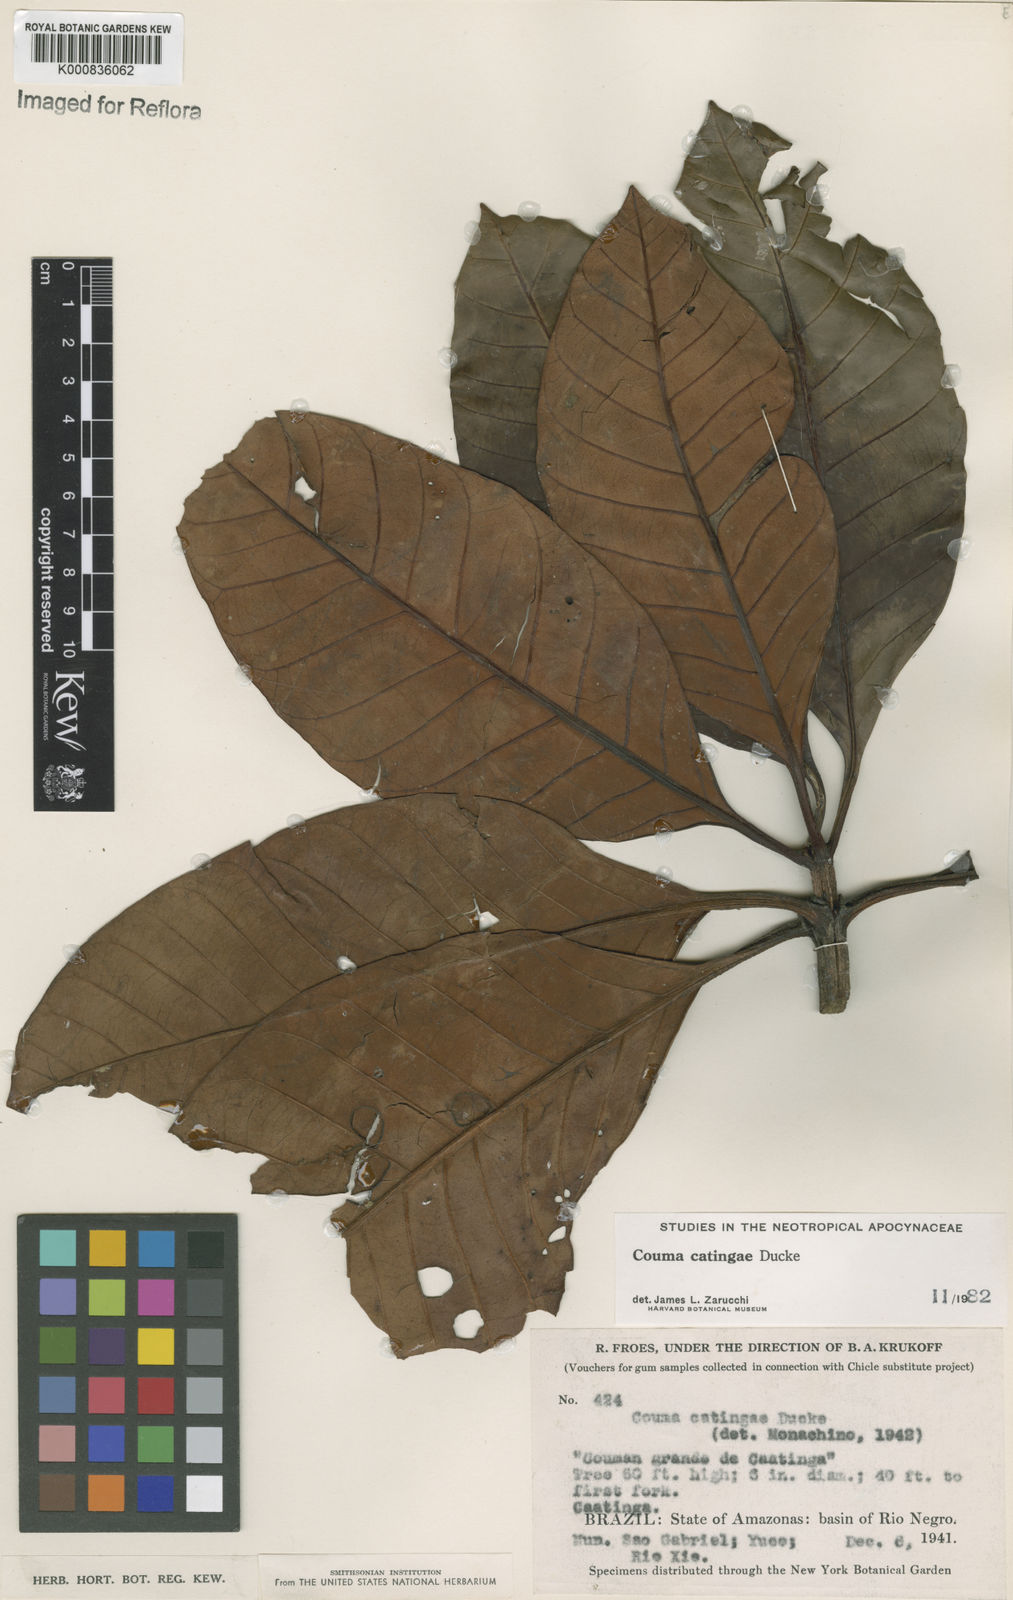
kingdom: Plantae
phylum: Tracheophyta
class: Magnoliopsida
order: Gentianales
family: Apocynaceae
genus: Couma
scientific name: Couma catingae
